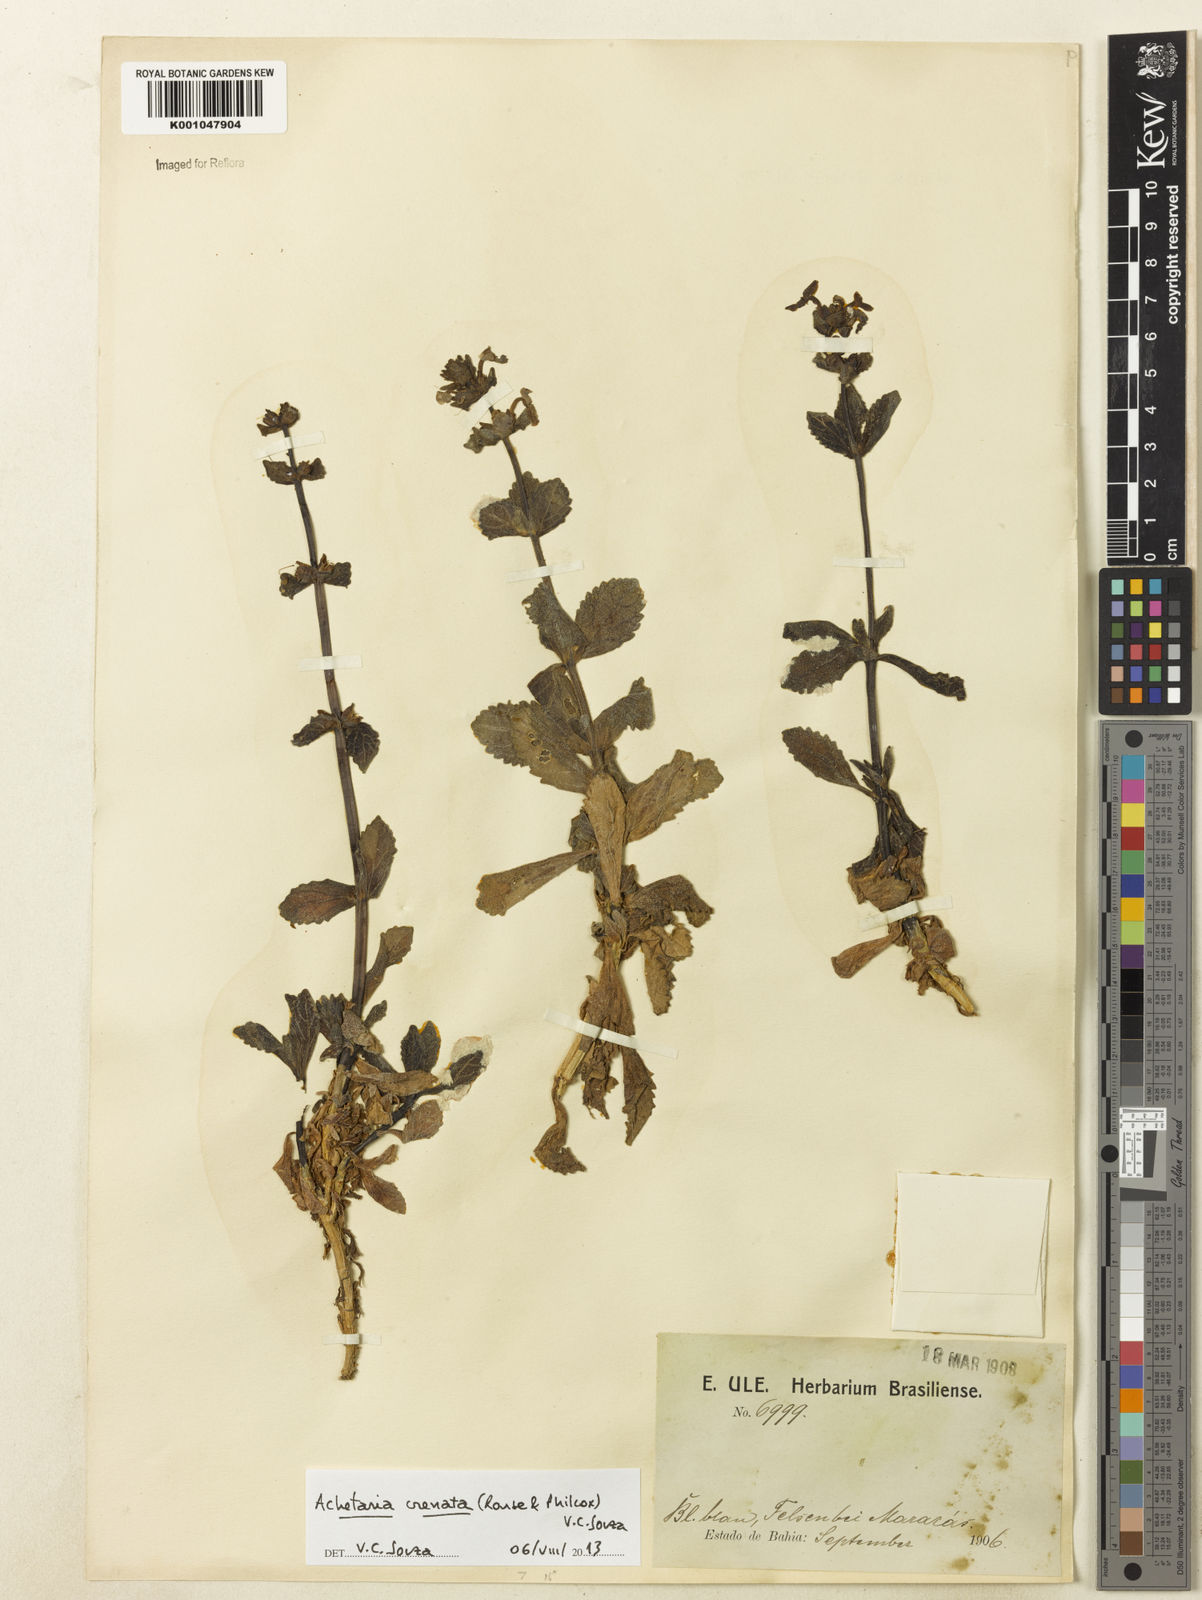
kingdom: Plantae
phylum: Tracheophyta
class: Magnoliopsida
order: Lamiales
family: Plantaginaceae
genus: Matourea
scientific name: Matourea crenata
